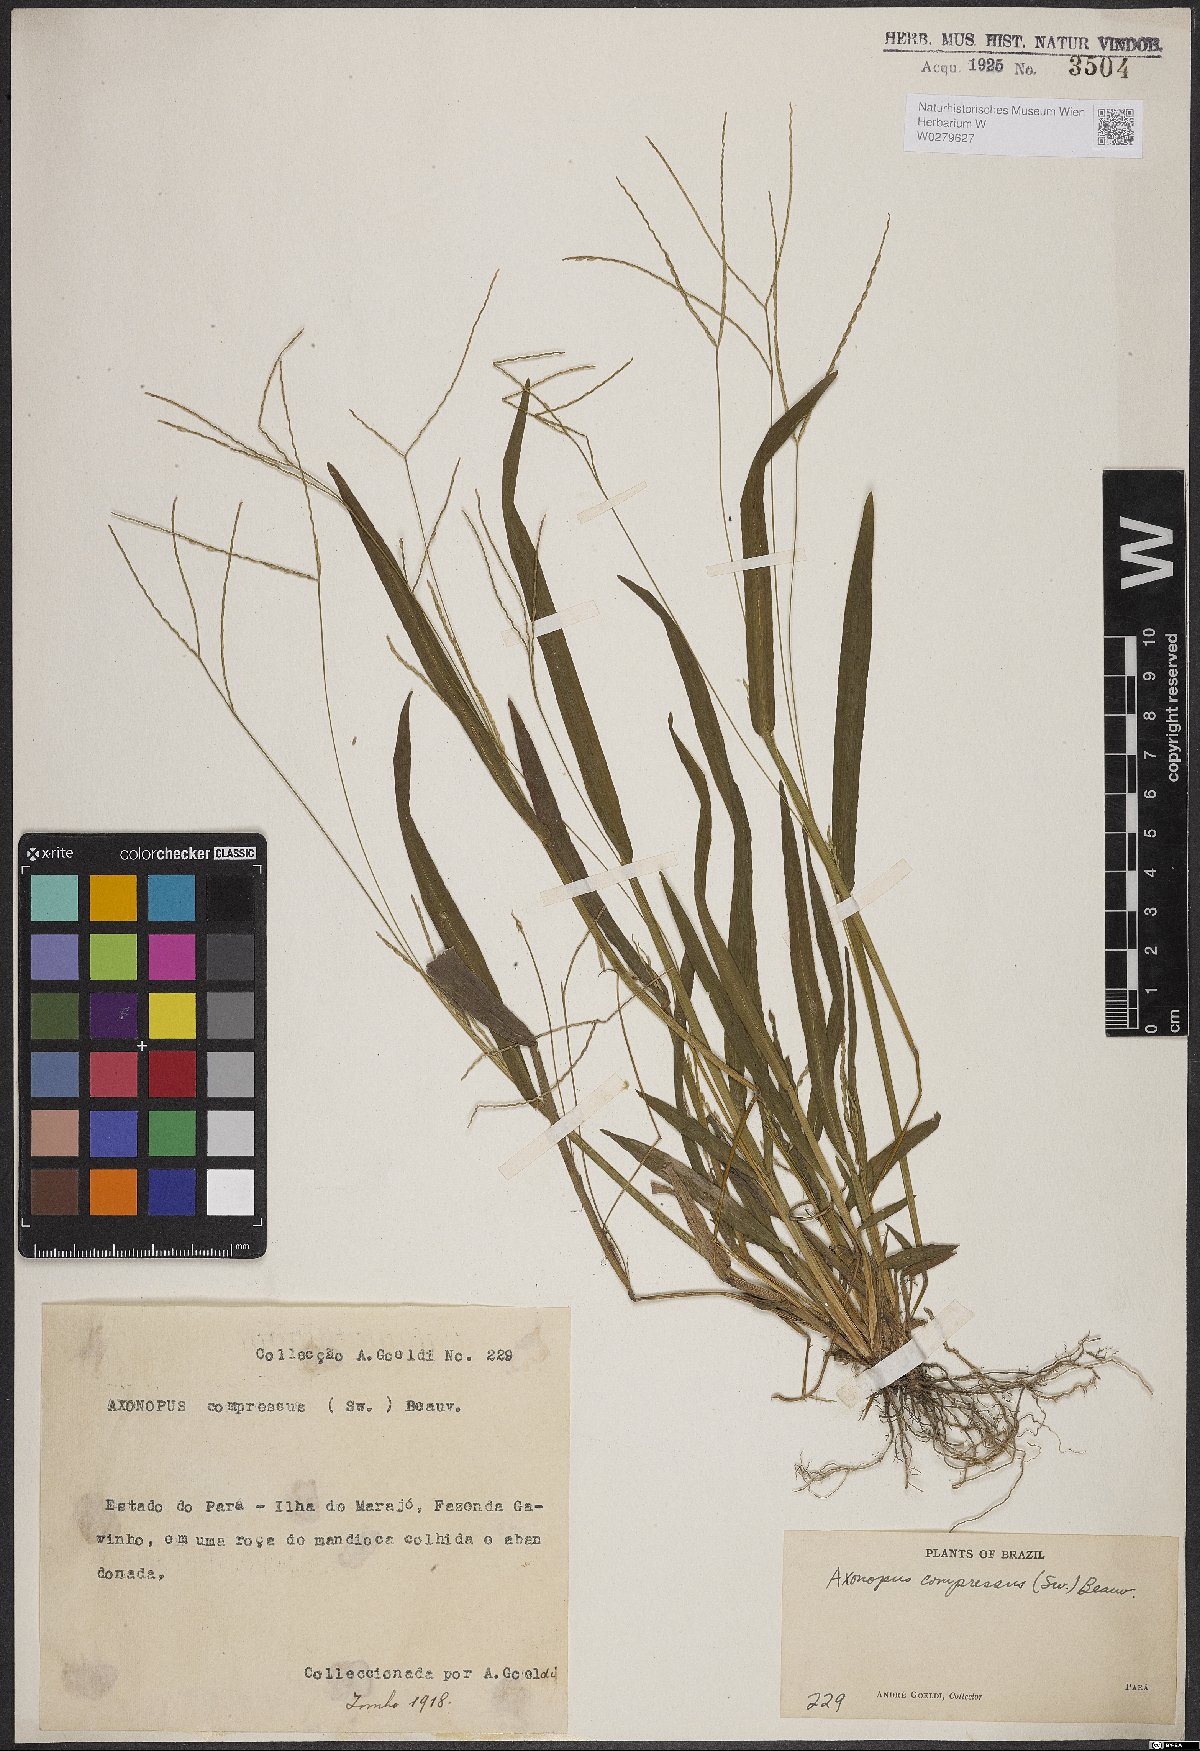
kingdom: Plantae
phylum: Tracheophyta
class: Liliopsida
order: Poales
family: Poaceae
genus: Axonopus
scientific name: Axonopus compressus
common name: American carpet grass
